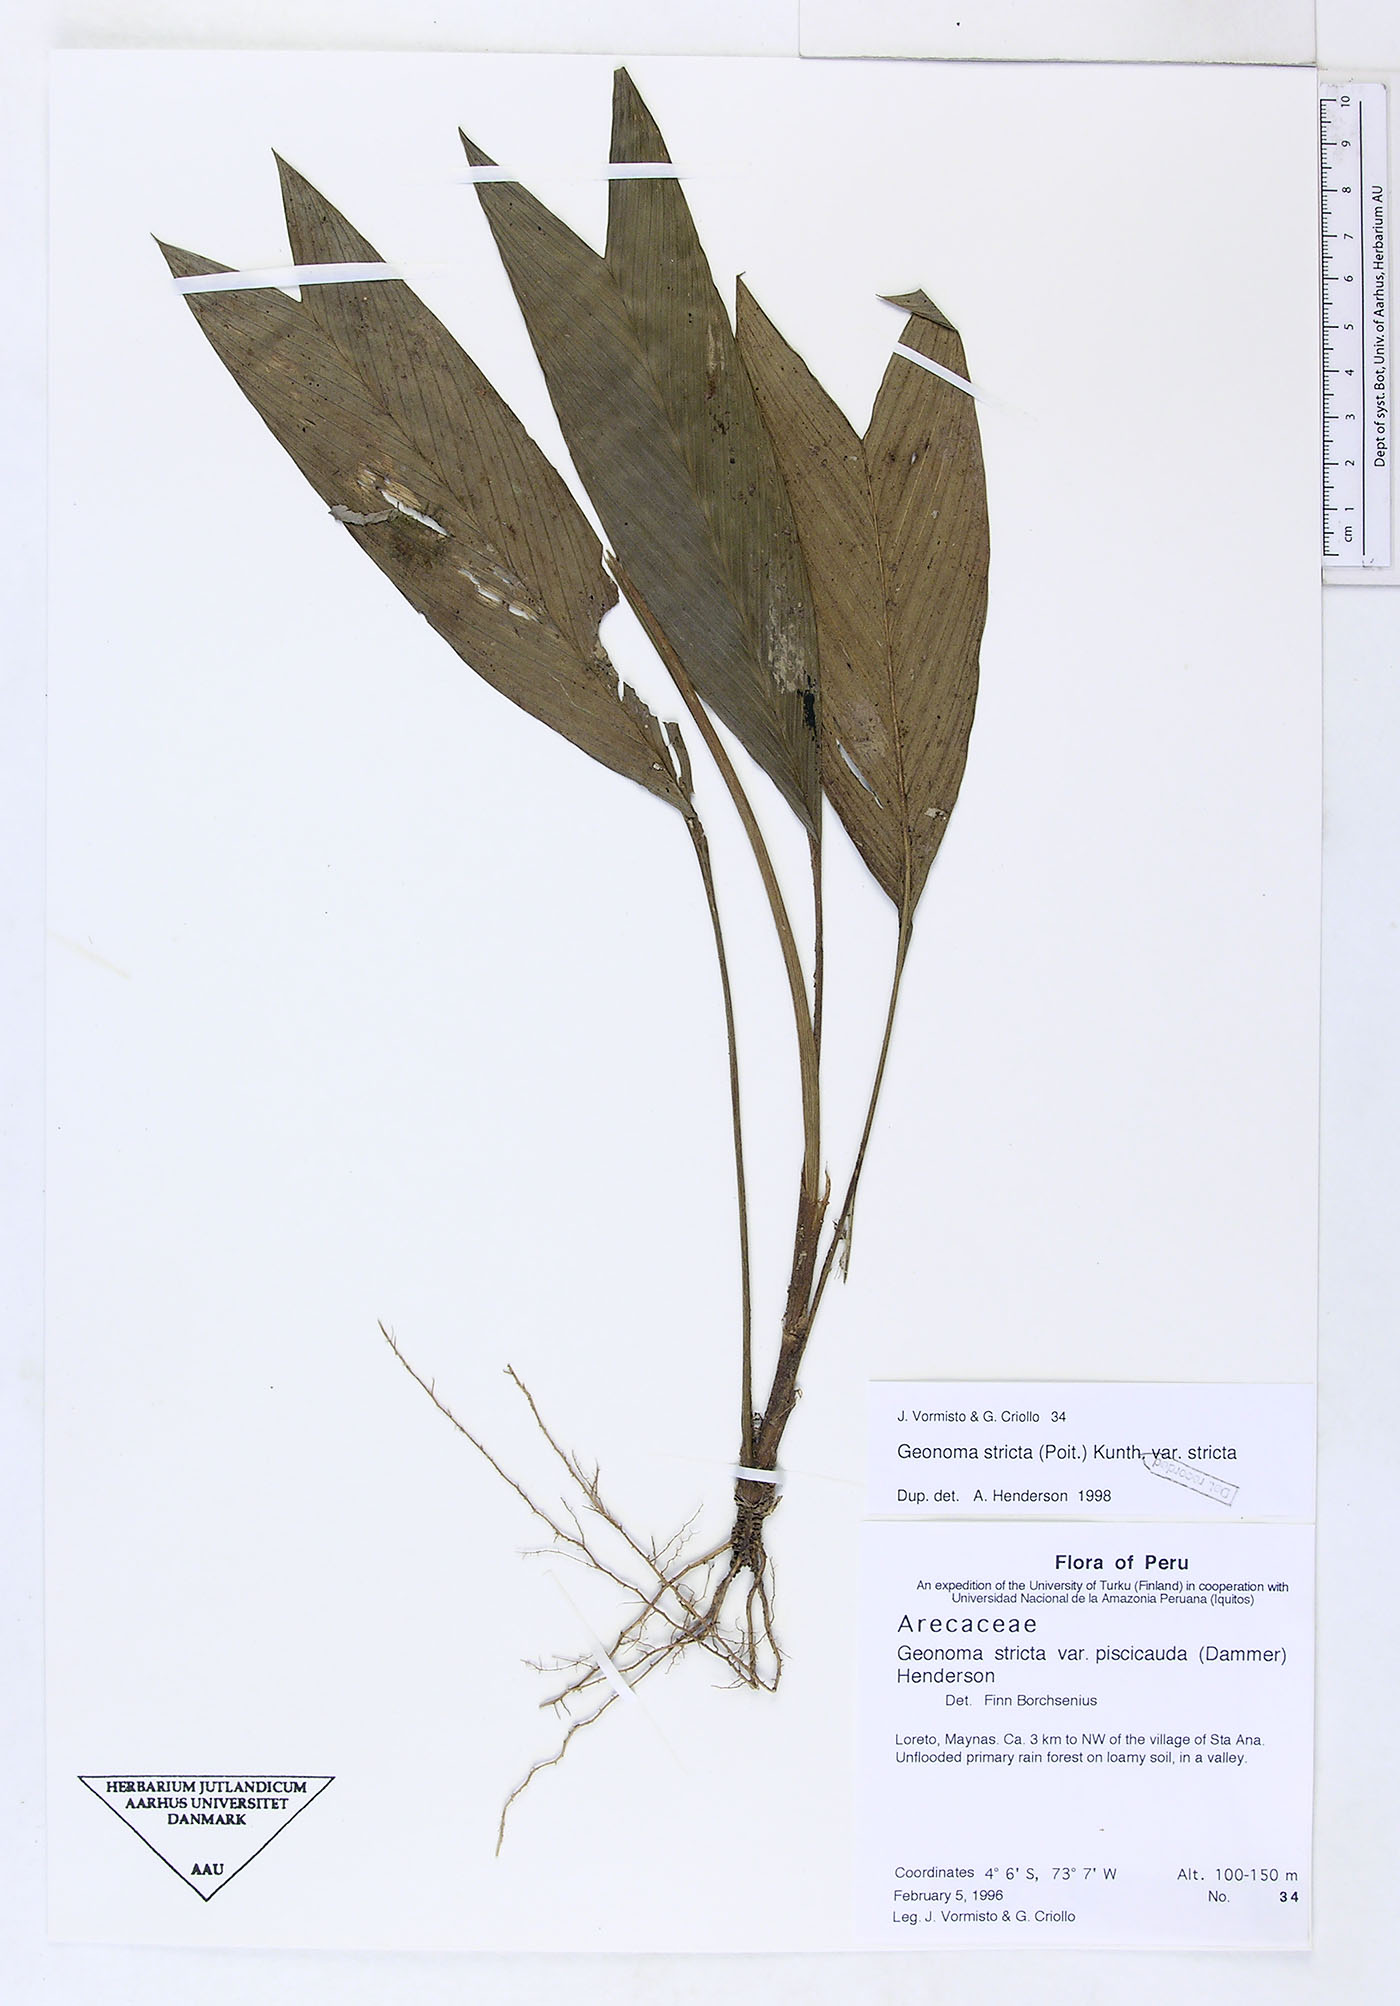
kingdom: Plantae
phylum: Tracheophyta
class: Liliopsida
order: Arecales
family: Arecaceae
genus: Geonoma
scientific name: Geonoma stricta
